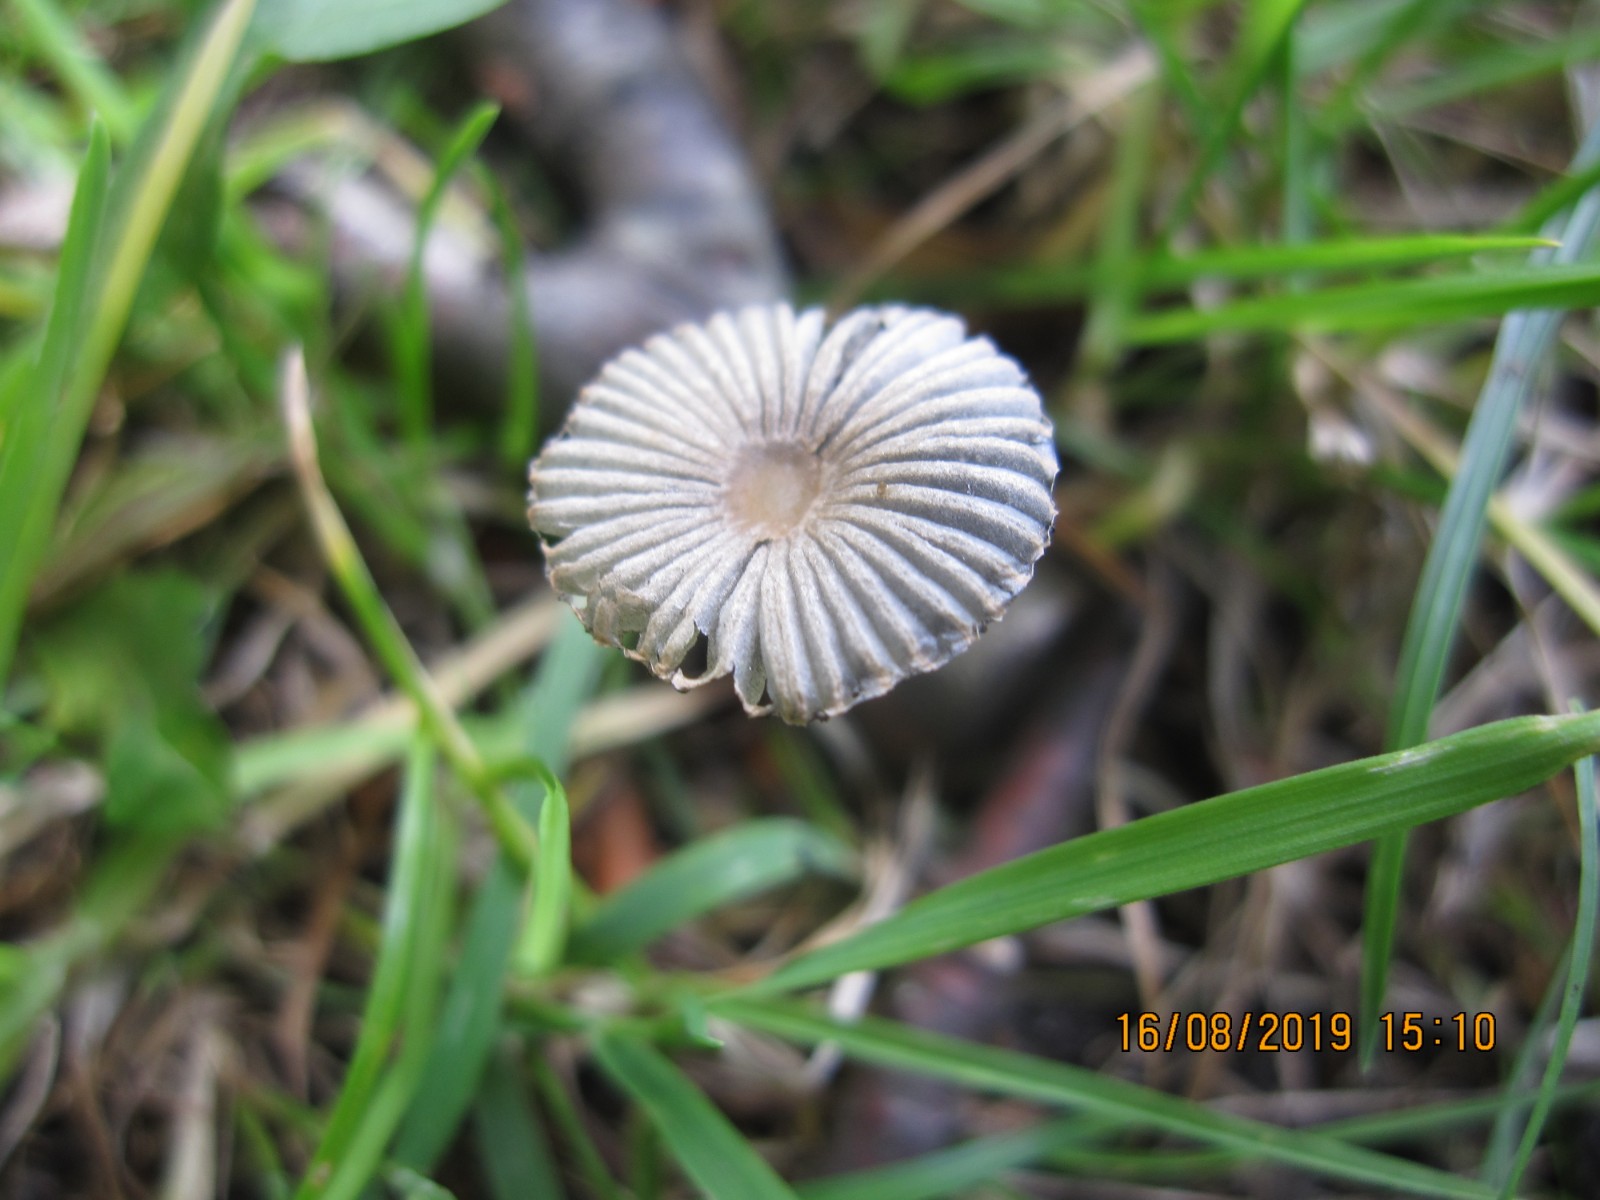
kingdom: Fungi
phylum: Basidiomycota
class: Agaricomycetes
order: Agaricales
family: Psathyrellaceae
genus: Parasola
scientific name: Parasola hercules
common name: Herkules-hjulhat
